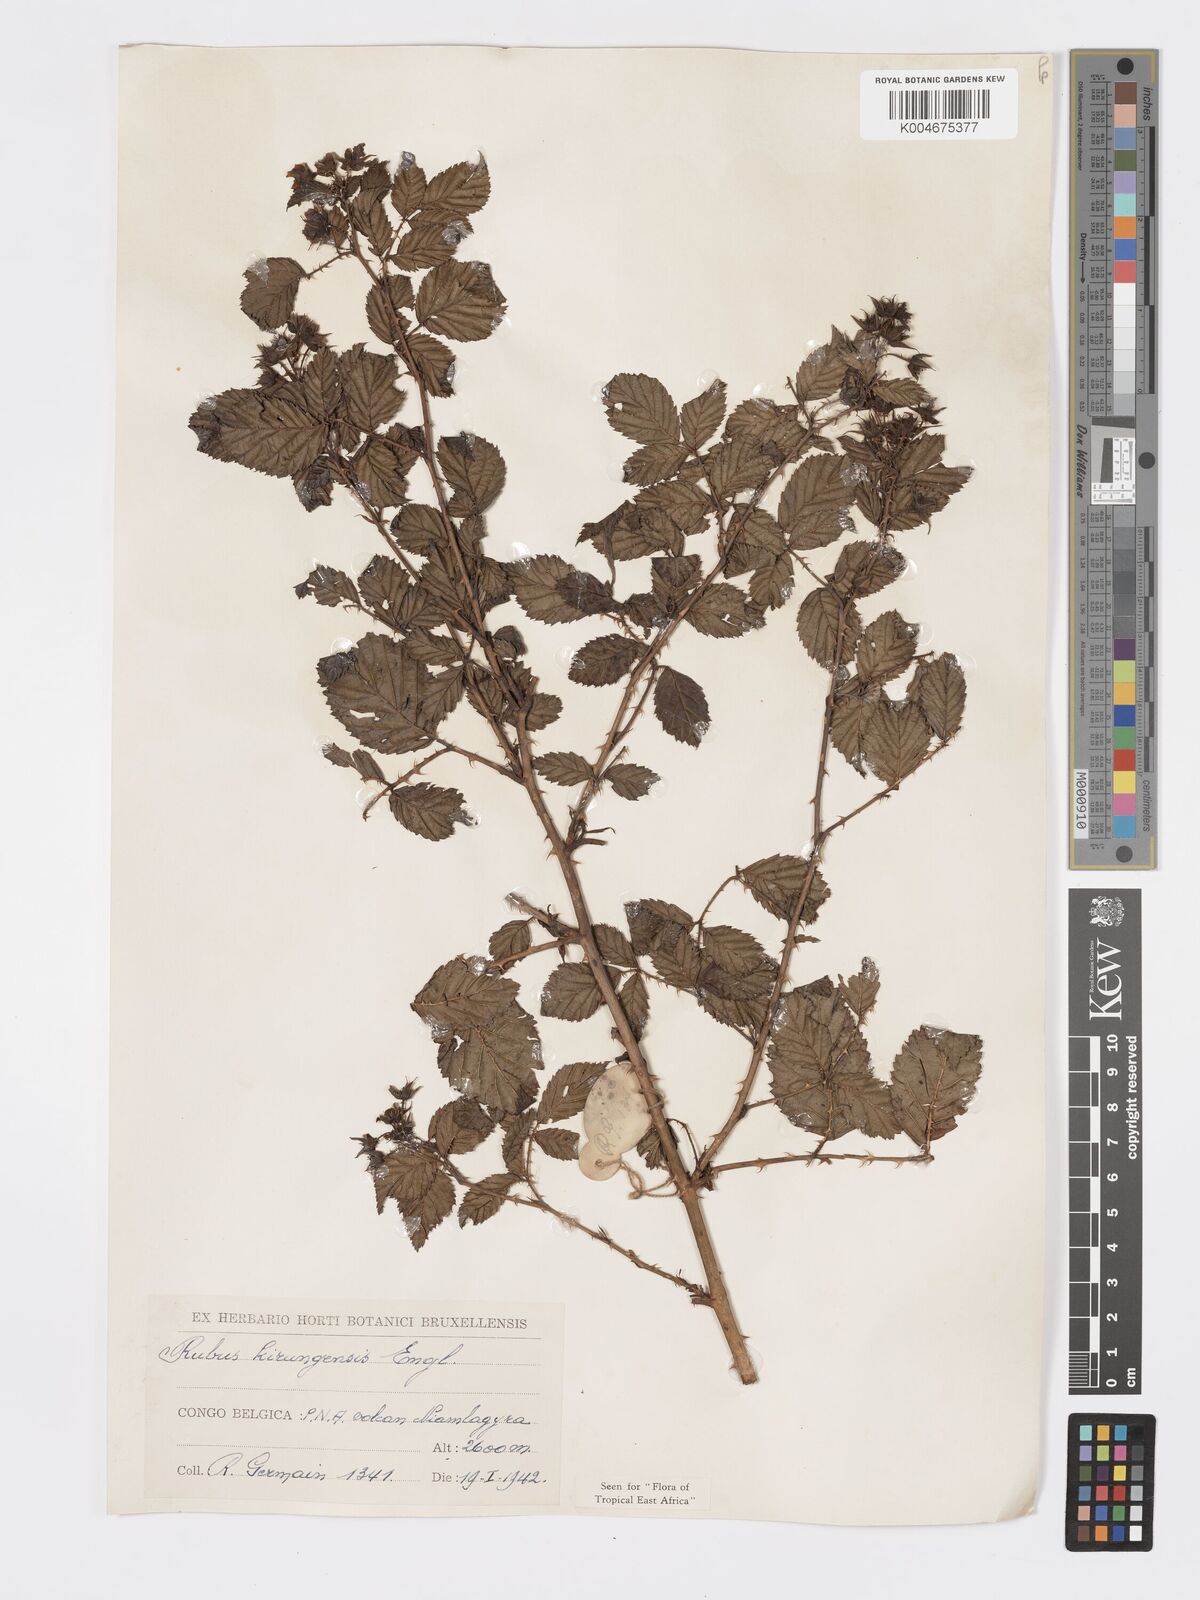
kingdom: Plantae
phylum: Tracheophyta
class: Magnoliopsida
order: Rosales
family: Rosaceae
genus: Rubus
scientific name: Rubus kirungensis
